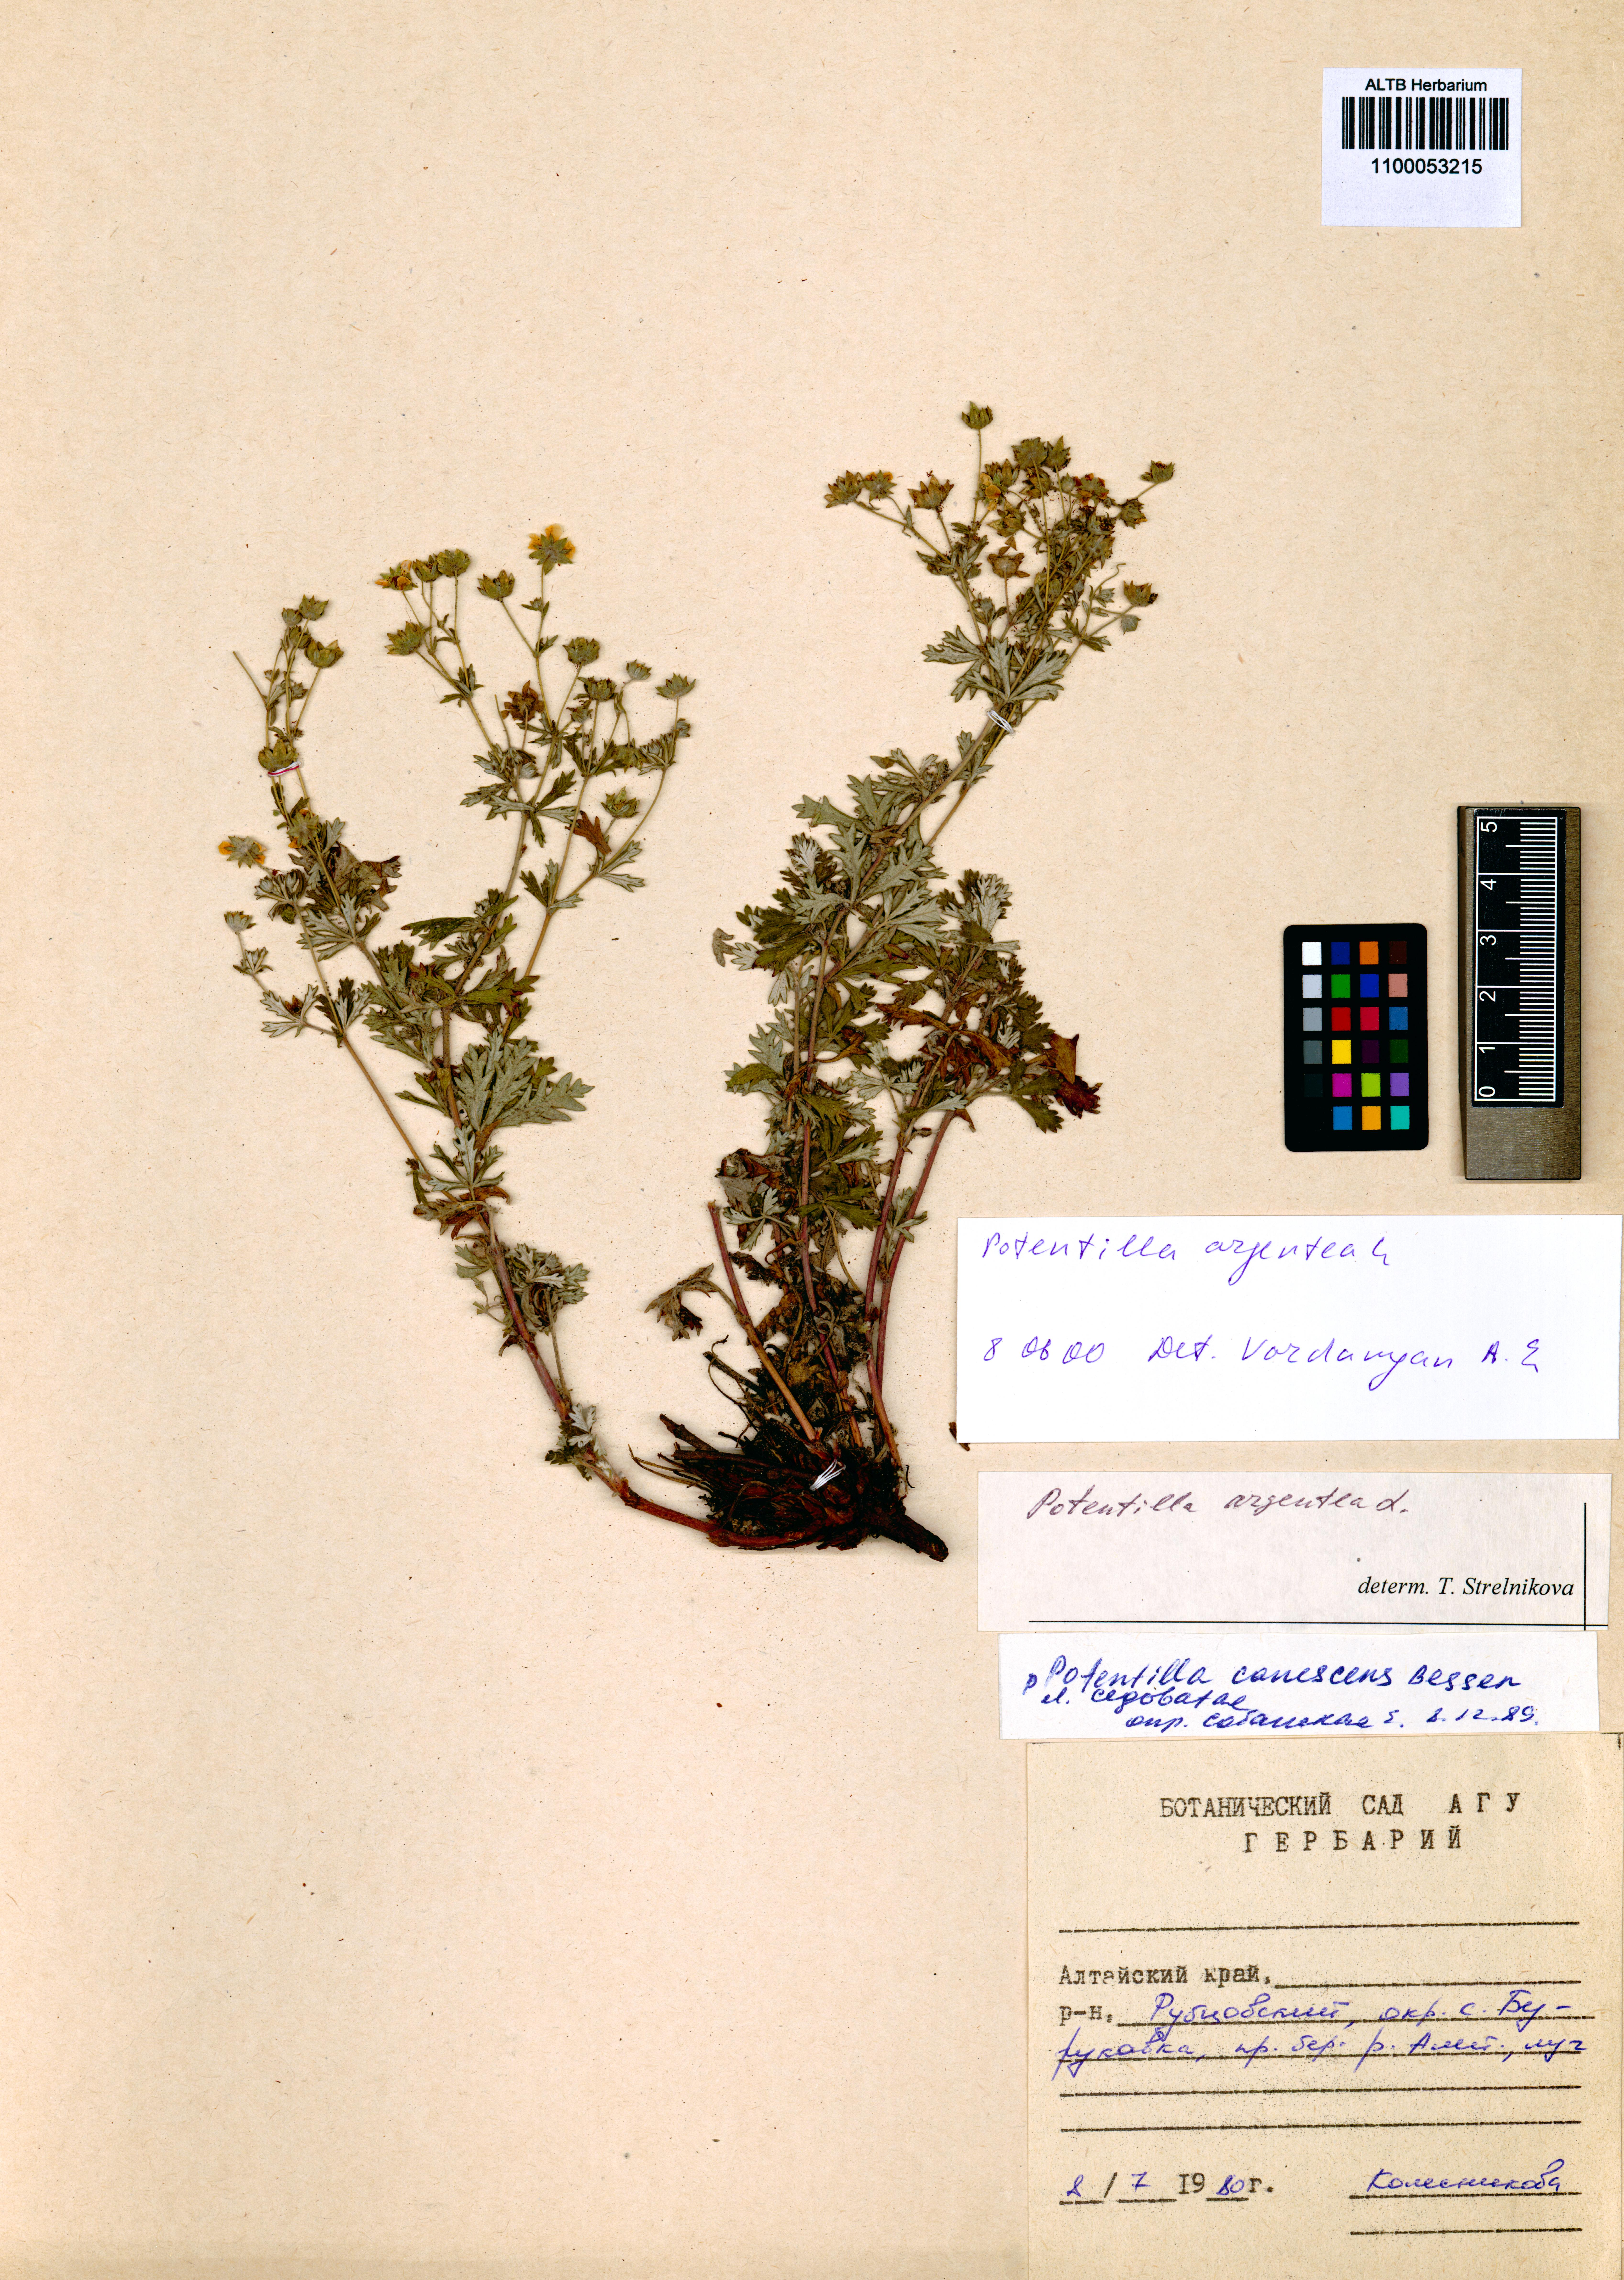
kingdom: Plantae
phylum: Tracheophyta
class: Magnoliopsida
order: Rosales
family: Rosaceae
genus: Potentilla
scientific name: Potentilla argentea
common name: Hoary cinquefoil
